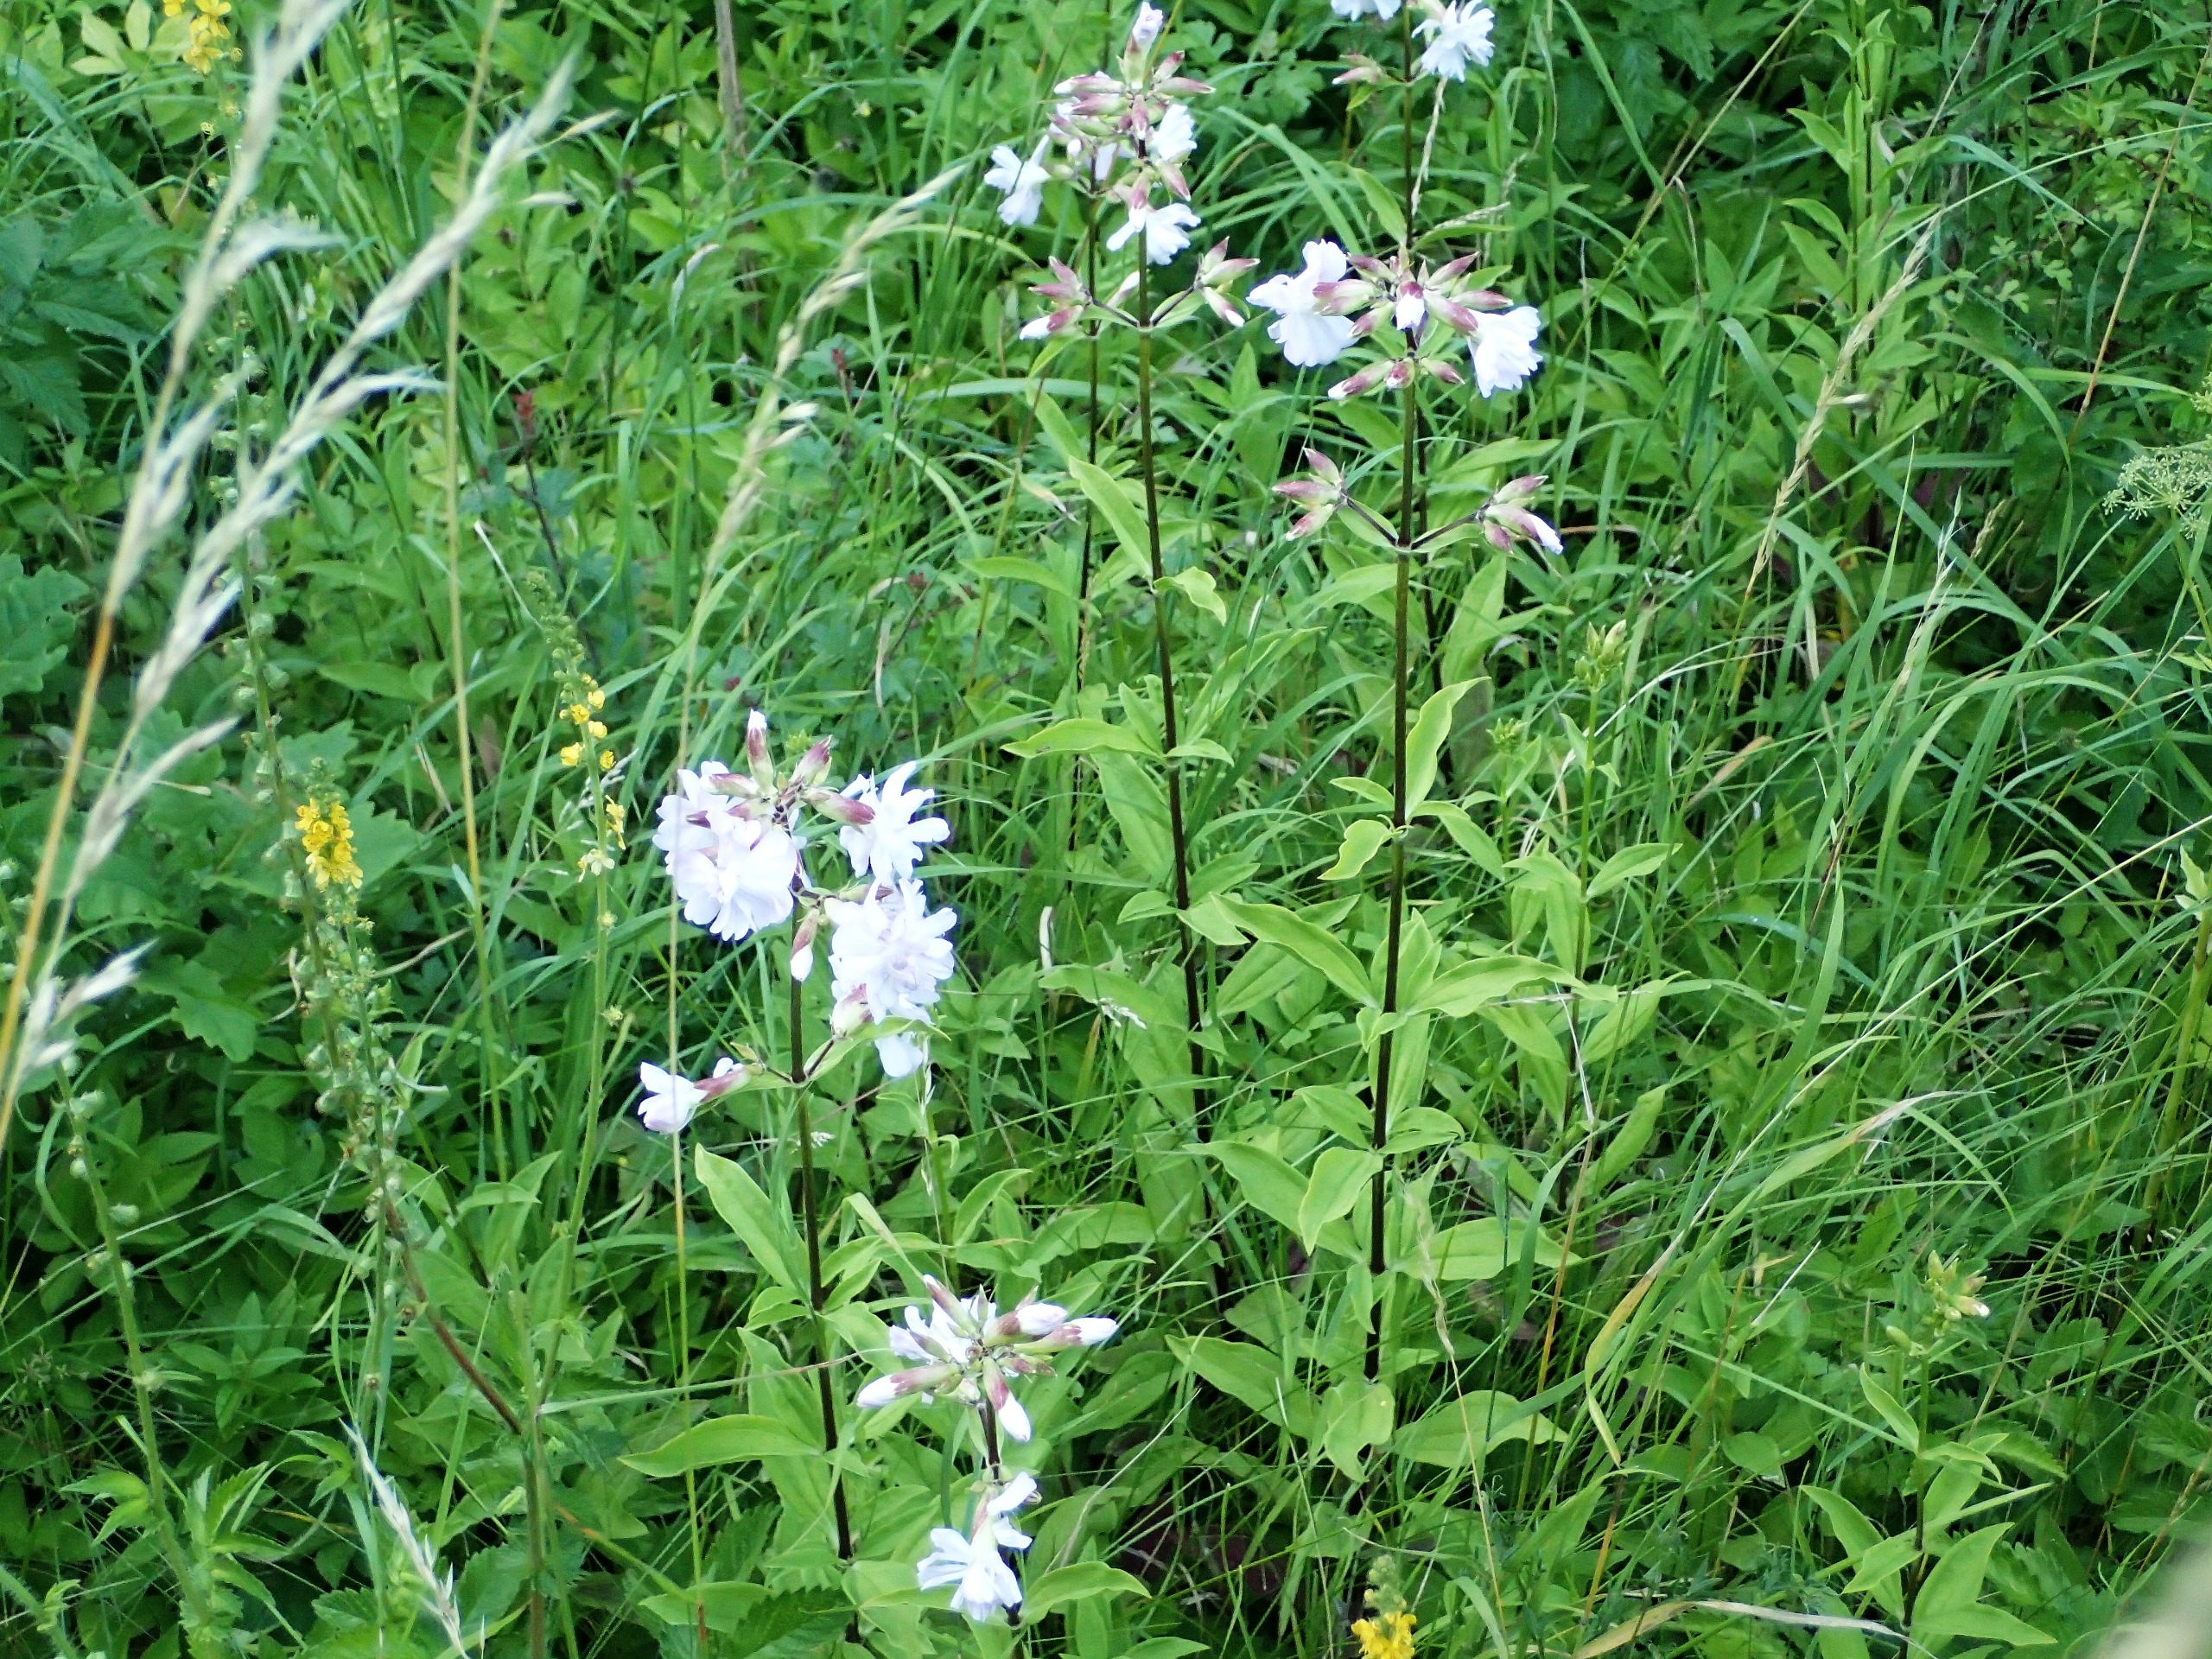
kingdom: Plantae
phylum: Tracheophyta
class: Magnoliopsida
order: Caryophyllales
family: Caryophyllaceae
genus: Saponaria
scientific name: Saponaria officinalis
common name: Sæbeurt
